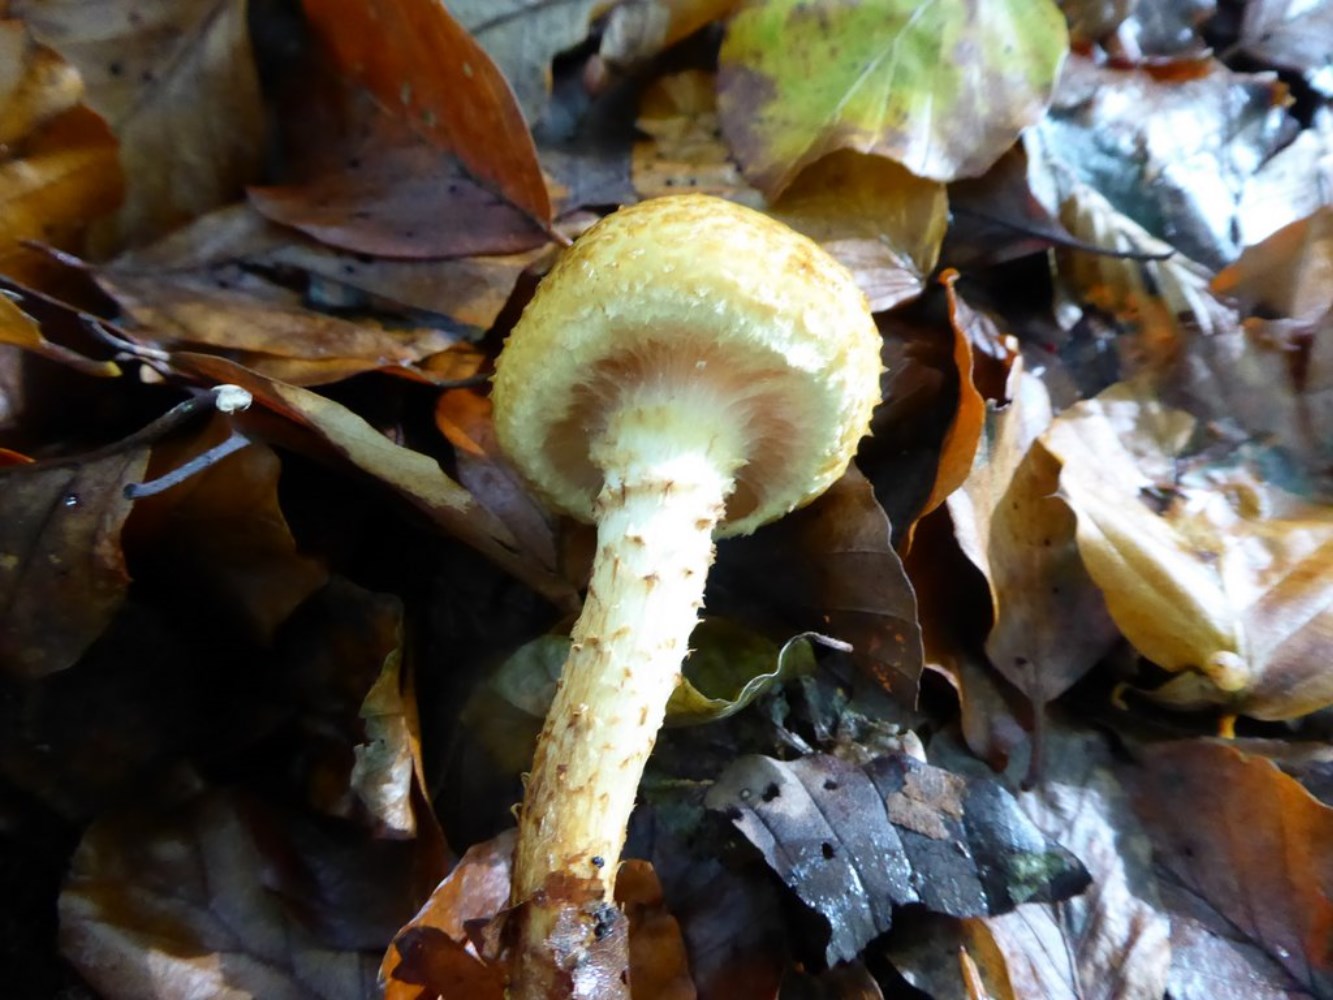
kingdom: Fungi
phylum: Basidiomycota
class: Agaricomycetes
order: Agaricales
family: Strophariaceae
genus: Pholiota
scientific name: Pholiota jahnii
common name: slimet skælhat
